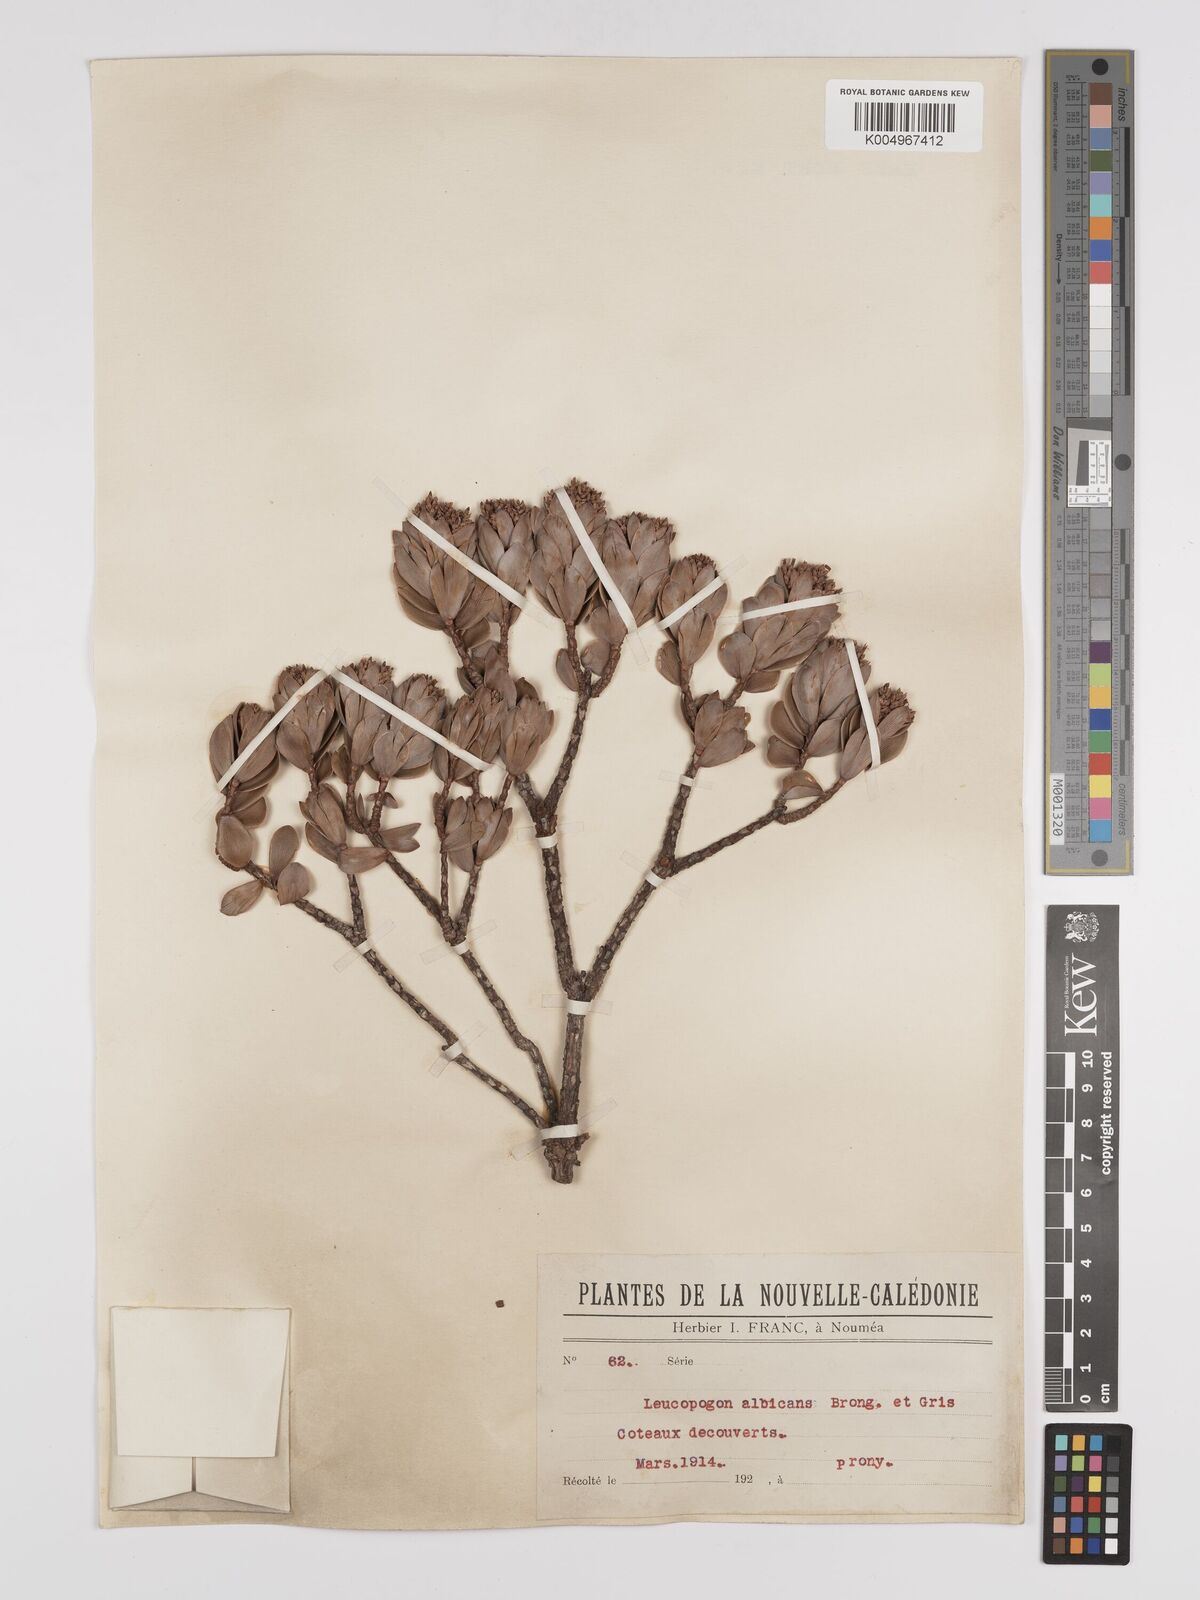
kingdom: Plantae
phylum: Tracheophyta
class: Magnoliopsida
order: Ericales
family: Ericaceae
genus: Cyathopsis
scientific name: Cyathopsis albicans
